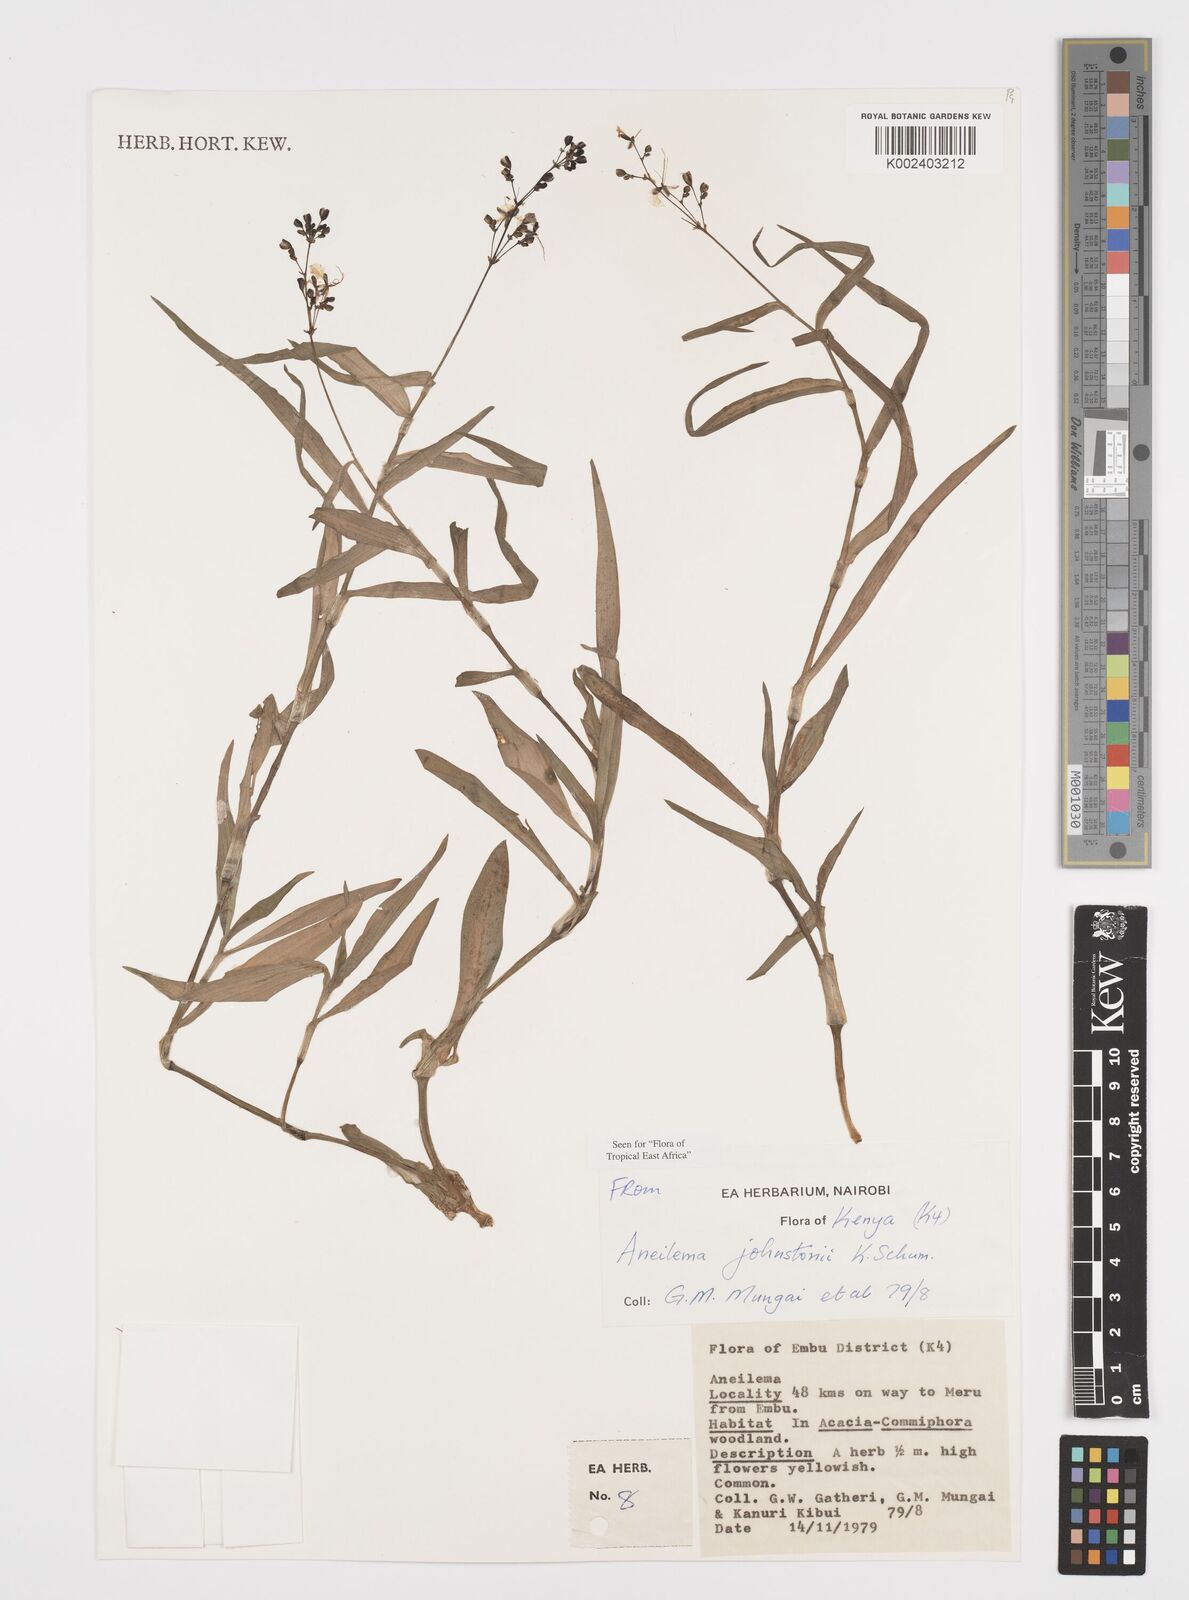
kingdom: Plantae
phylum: Tracheophyta
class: Liliopsida
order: Commelinales
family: Commelinaceae
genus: Aneilema
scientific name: Aneilema johnstonii
